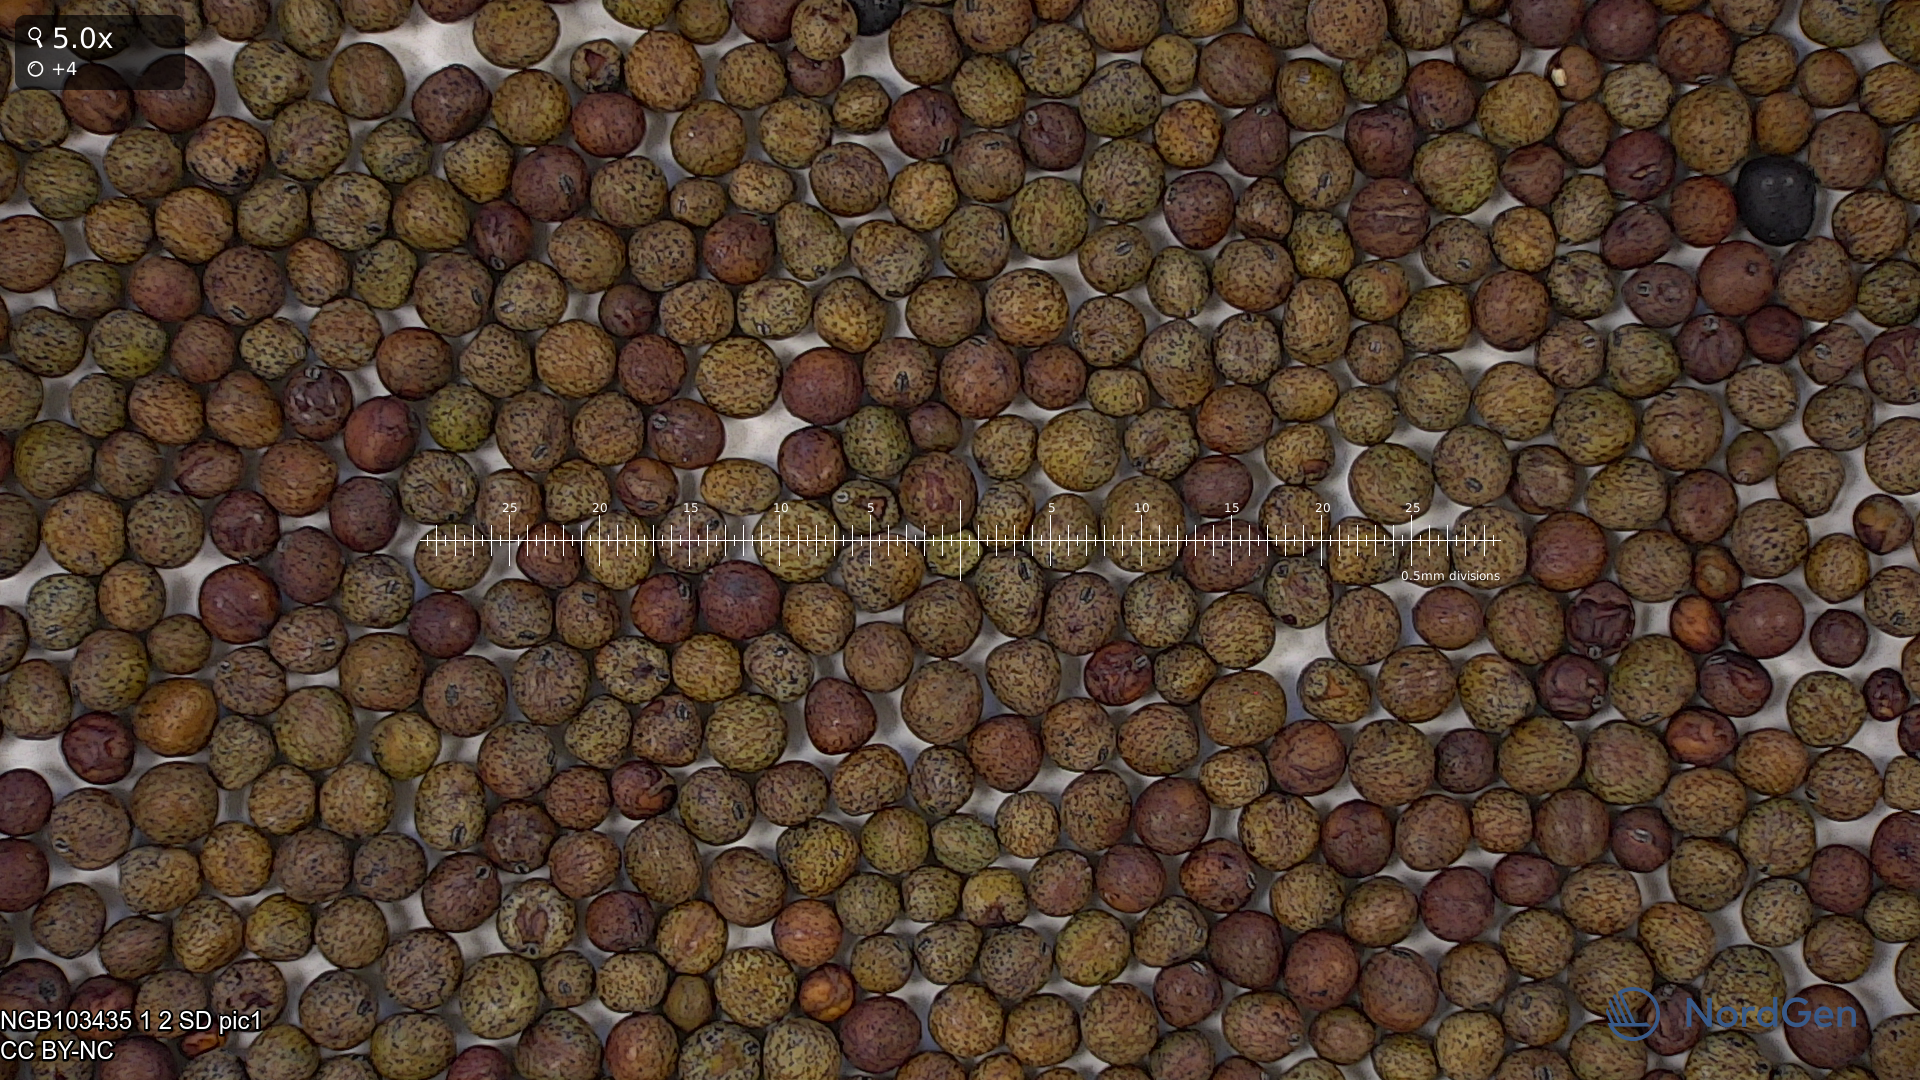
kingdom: Plantae
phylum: Tracheophyta
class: Magnoliopsida
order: Fabales
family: Fabaceae
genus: Lathyrus
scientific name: Lathyrus oleraceus
